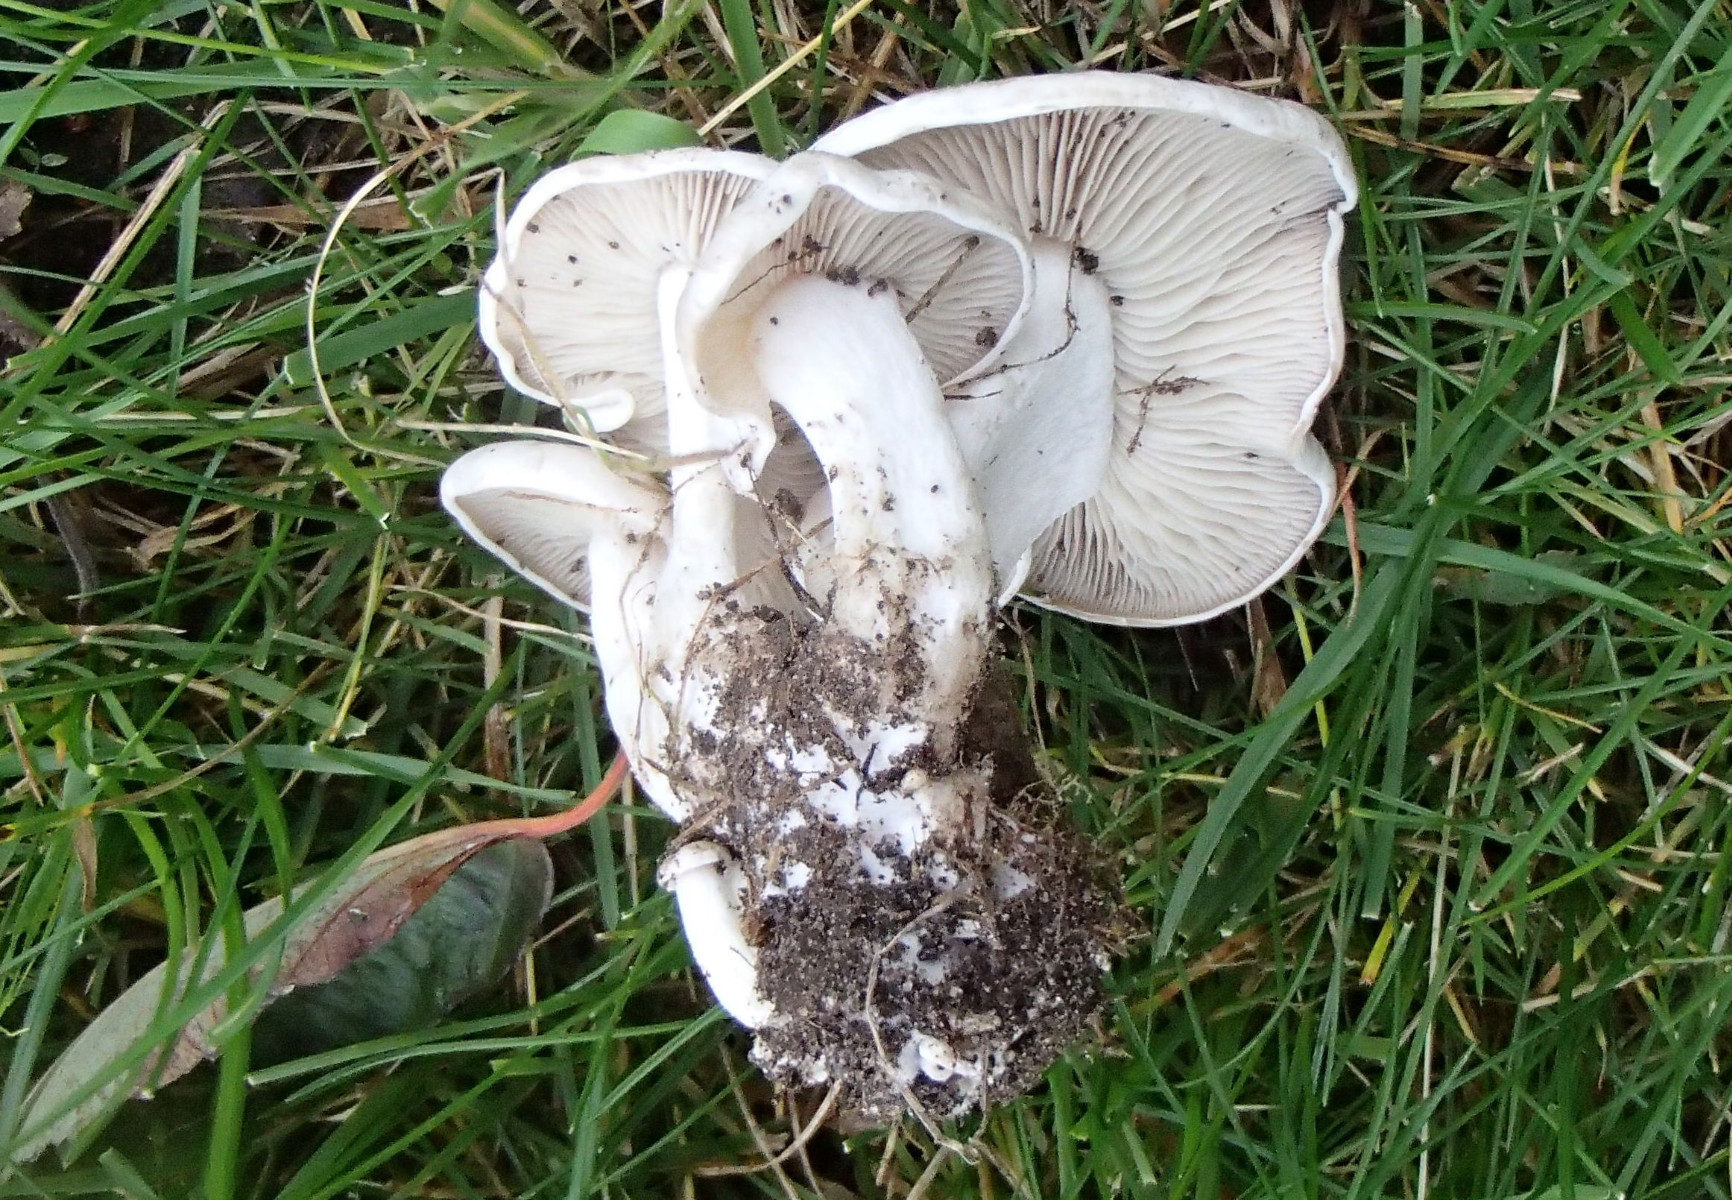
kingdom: Fungi
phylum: Basidiomycota
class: Agaricomycetes
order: Agaricales
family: Tricholomataceae
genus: Leucocybe
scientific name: Leucocybe connata
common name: knippe-tragthat
